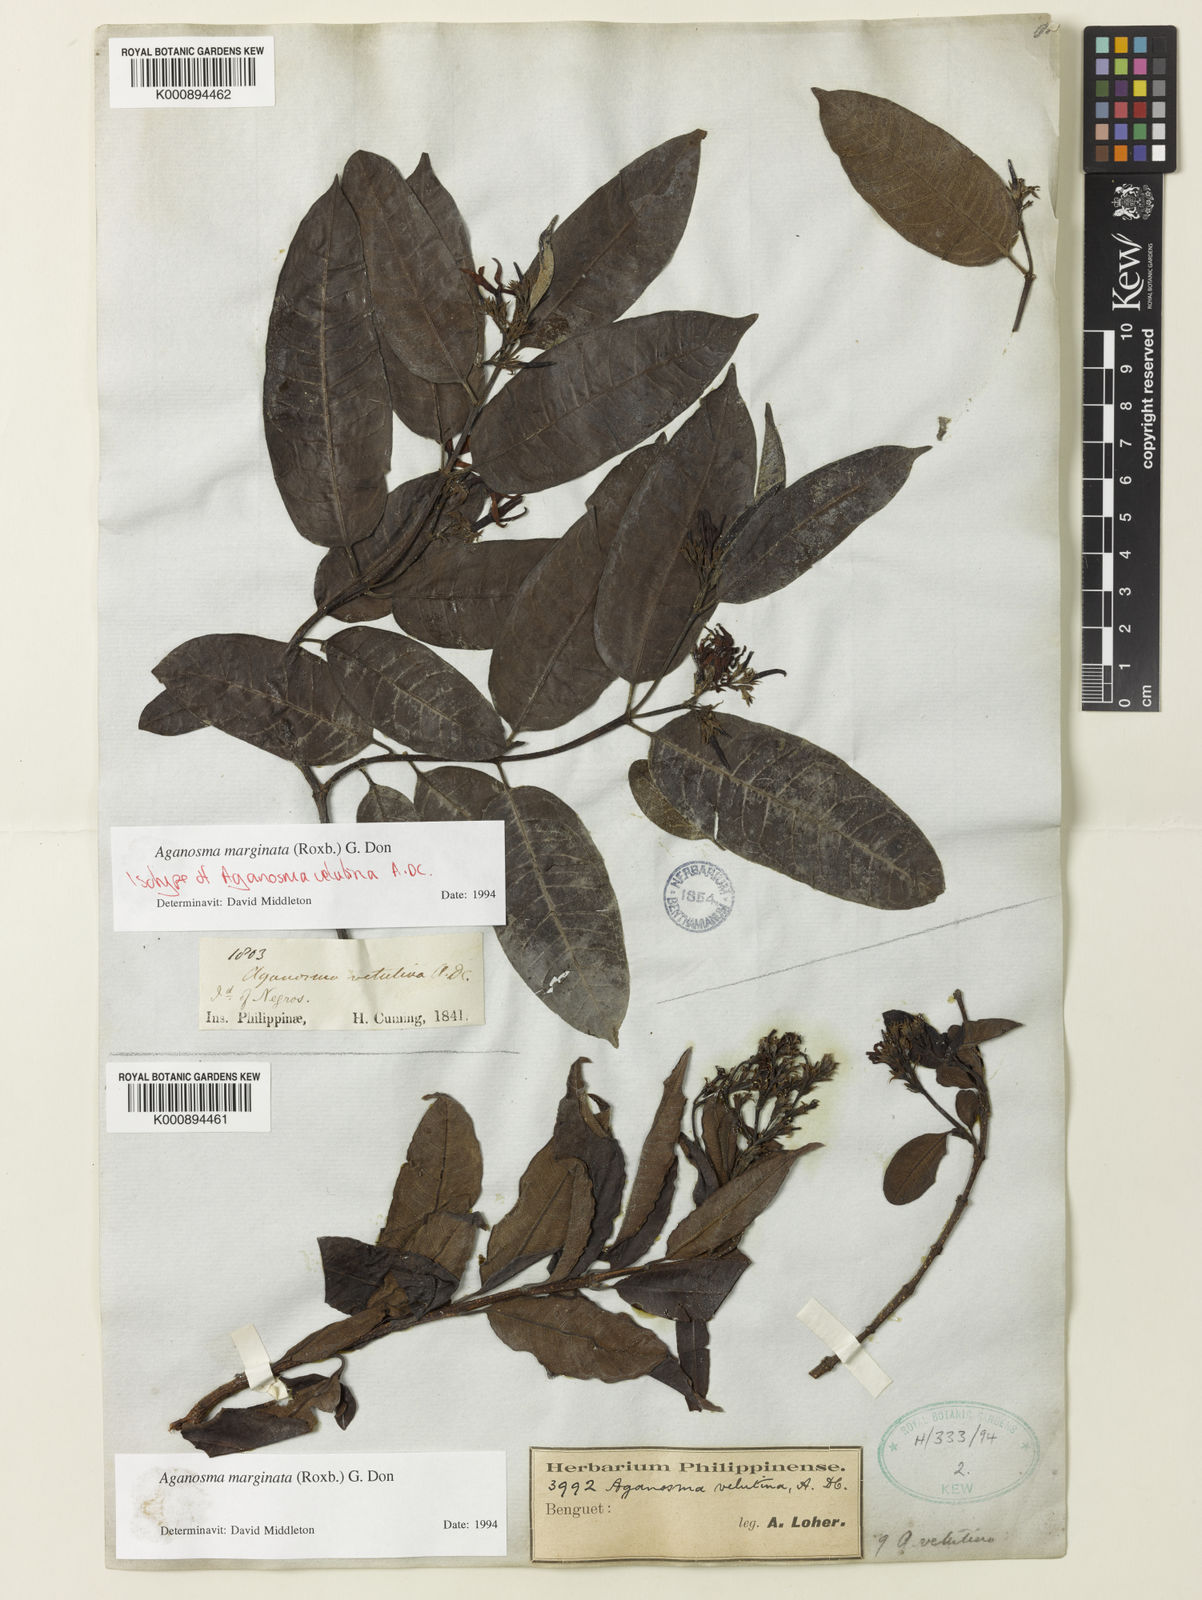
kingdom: Plantae
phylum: Tracheophyta
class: Magnoliopsida
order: Gentianales
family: Apocynaceae
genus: Amphineurion
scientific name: Amphineurion marginatum
